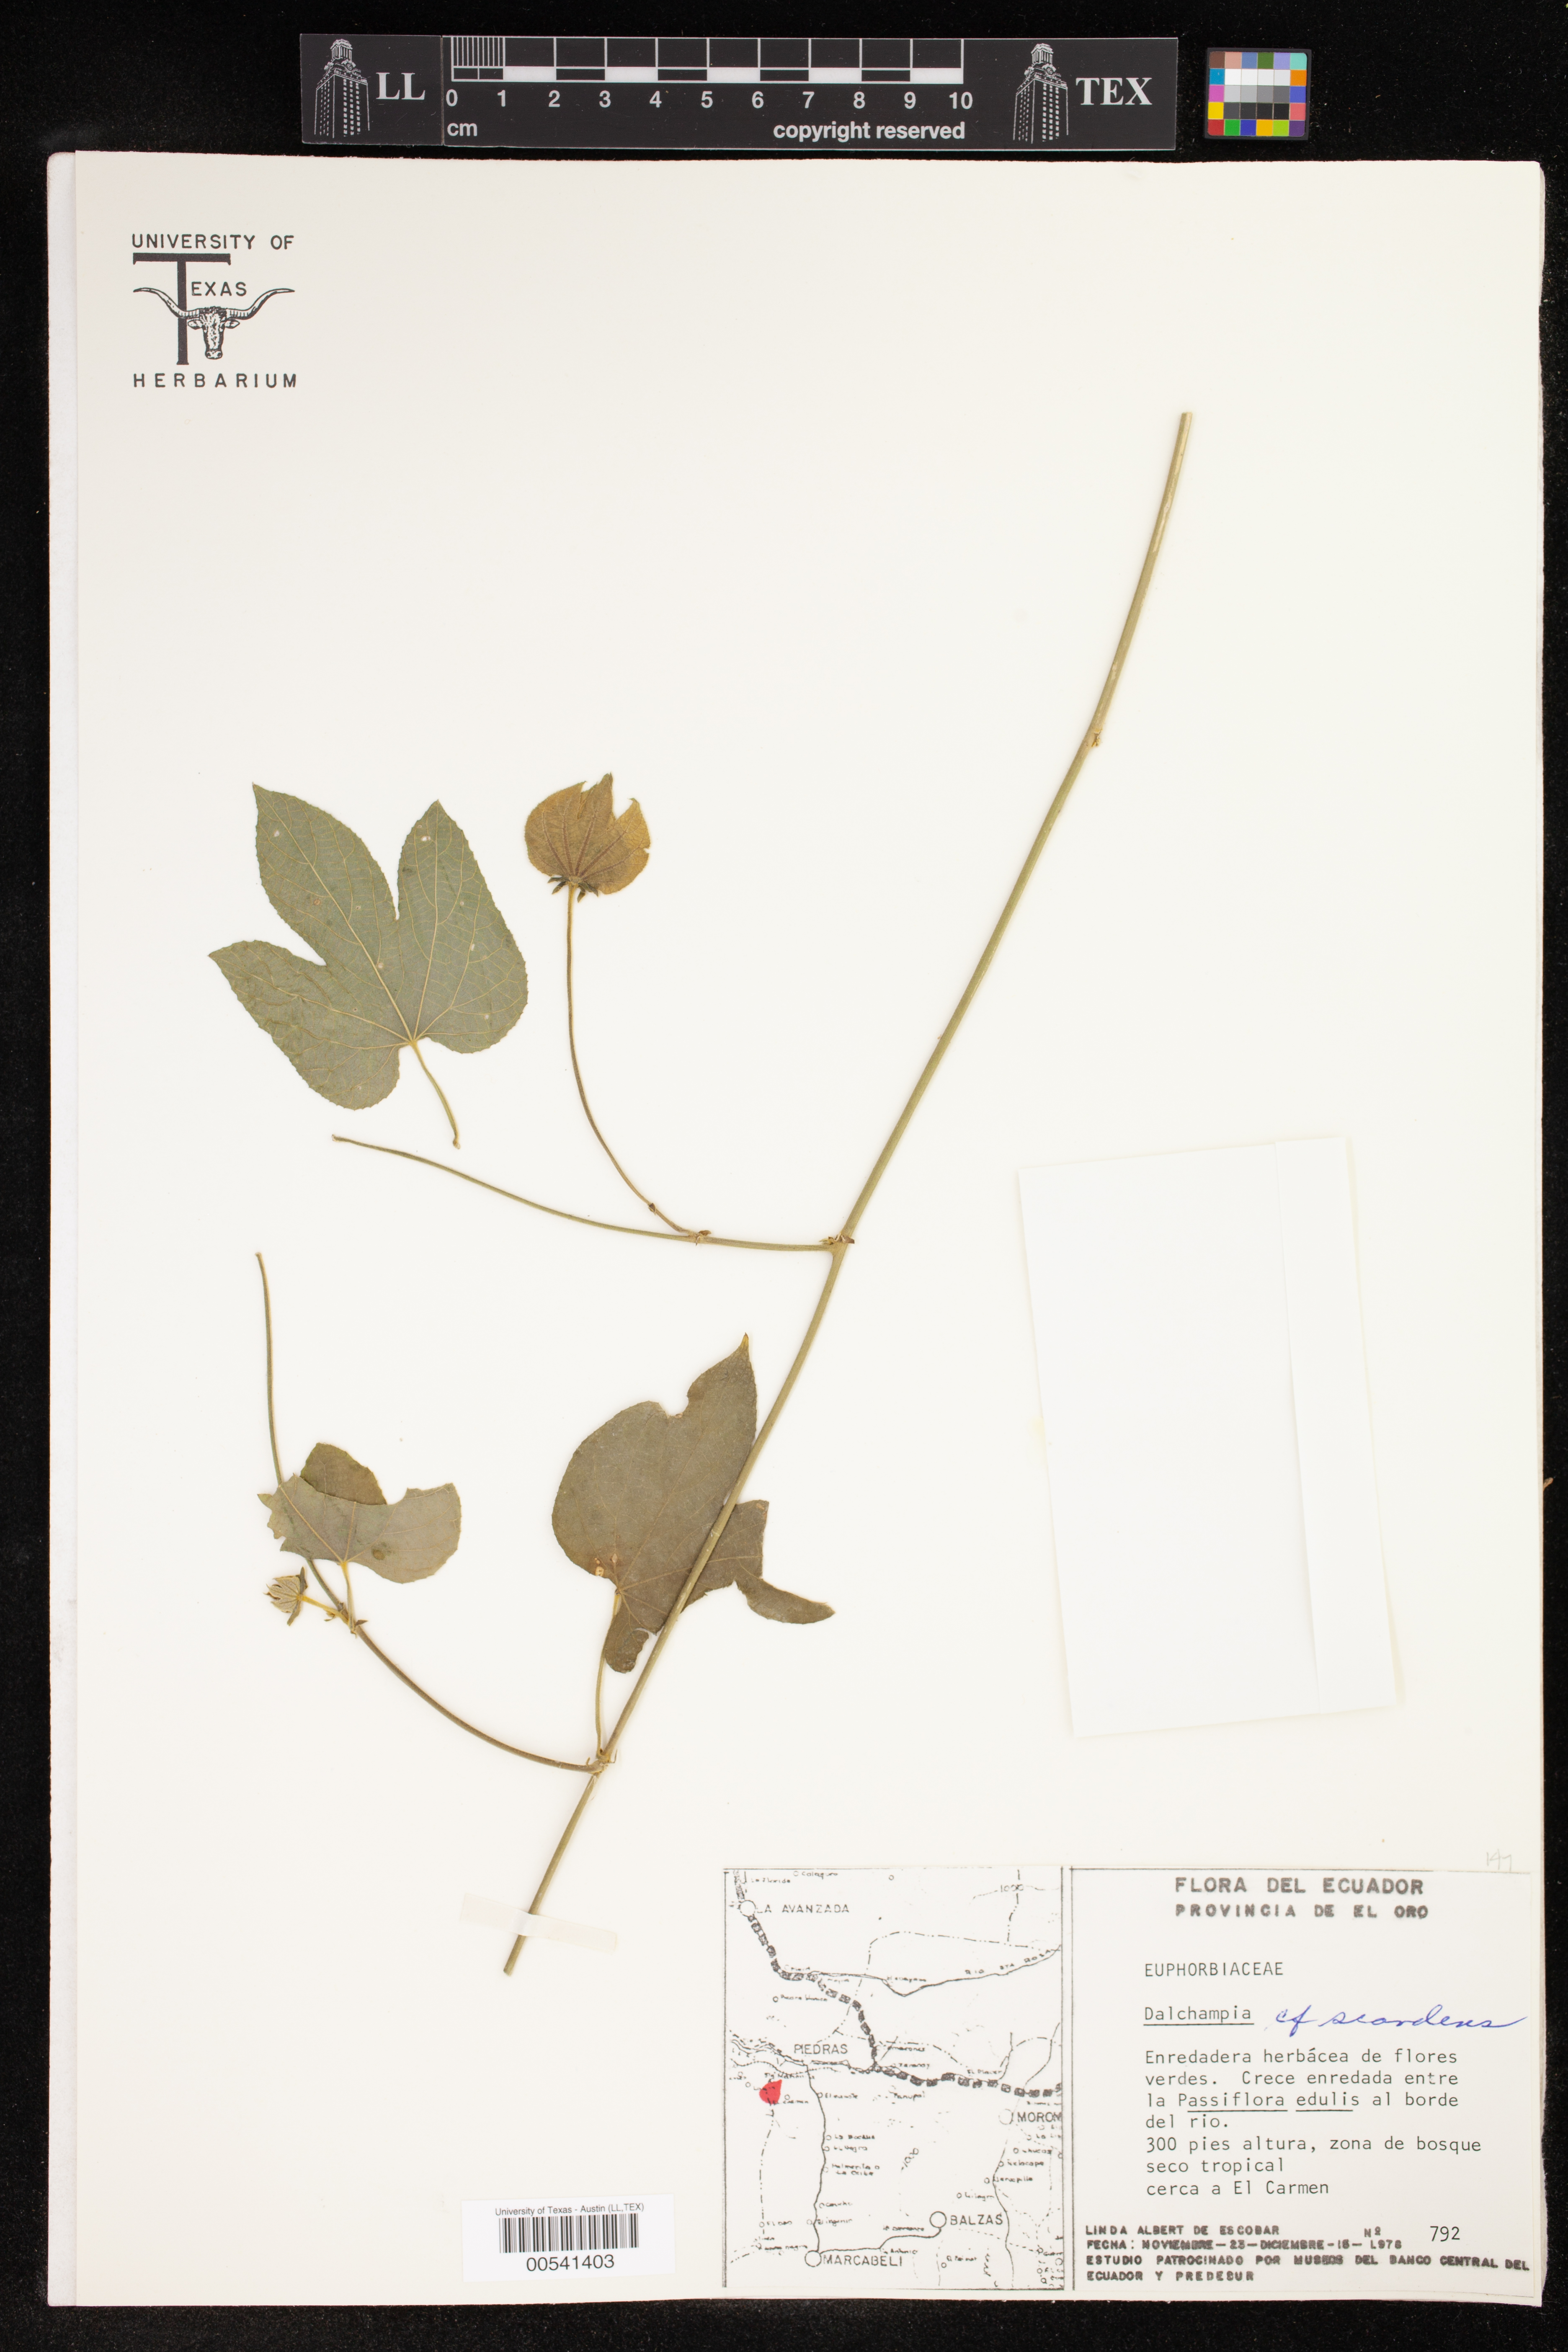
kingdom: Plantae
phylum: Tracheophyta
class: Magnoliopsida
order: Malpighiales
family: Euphorbiaceae
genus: Dalechampia
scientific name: Dalechampia scandens
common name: Spurgecreeper
